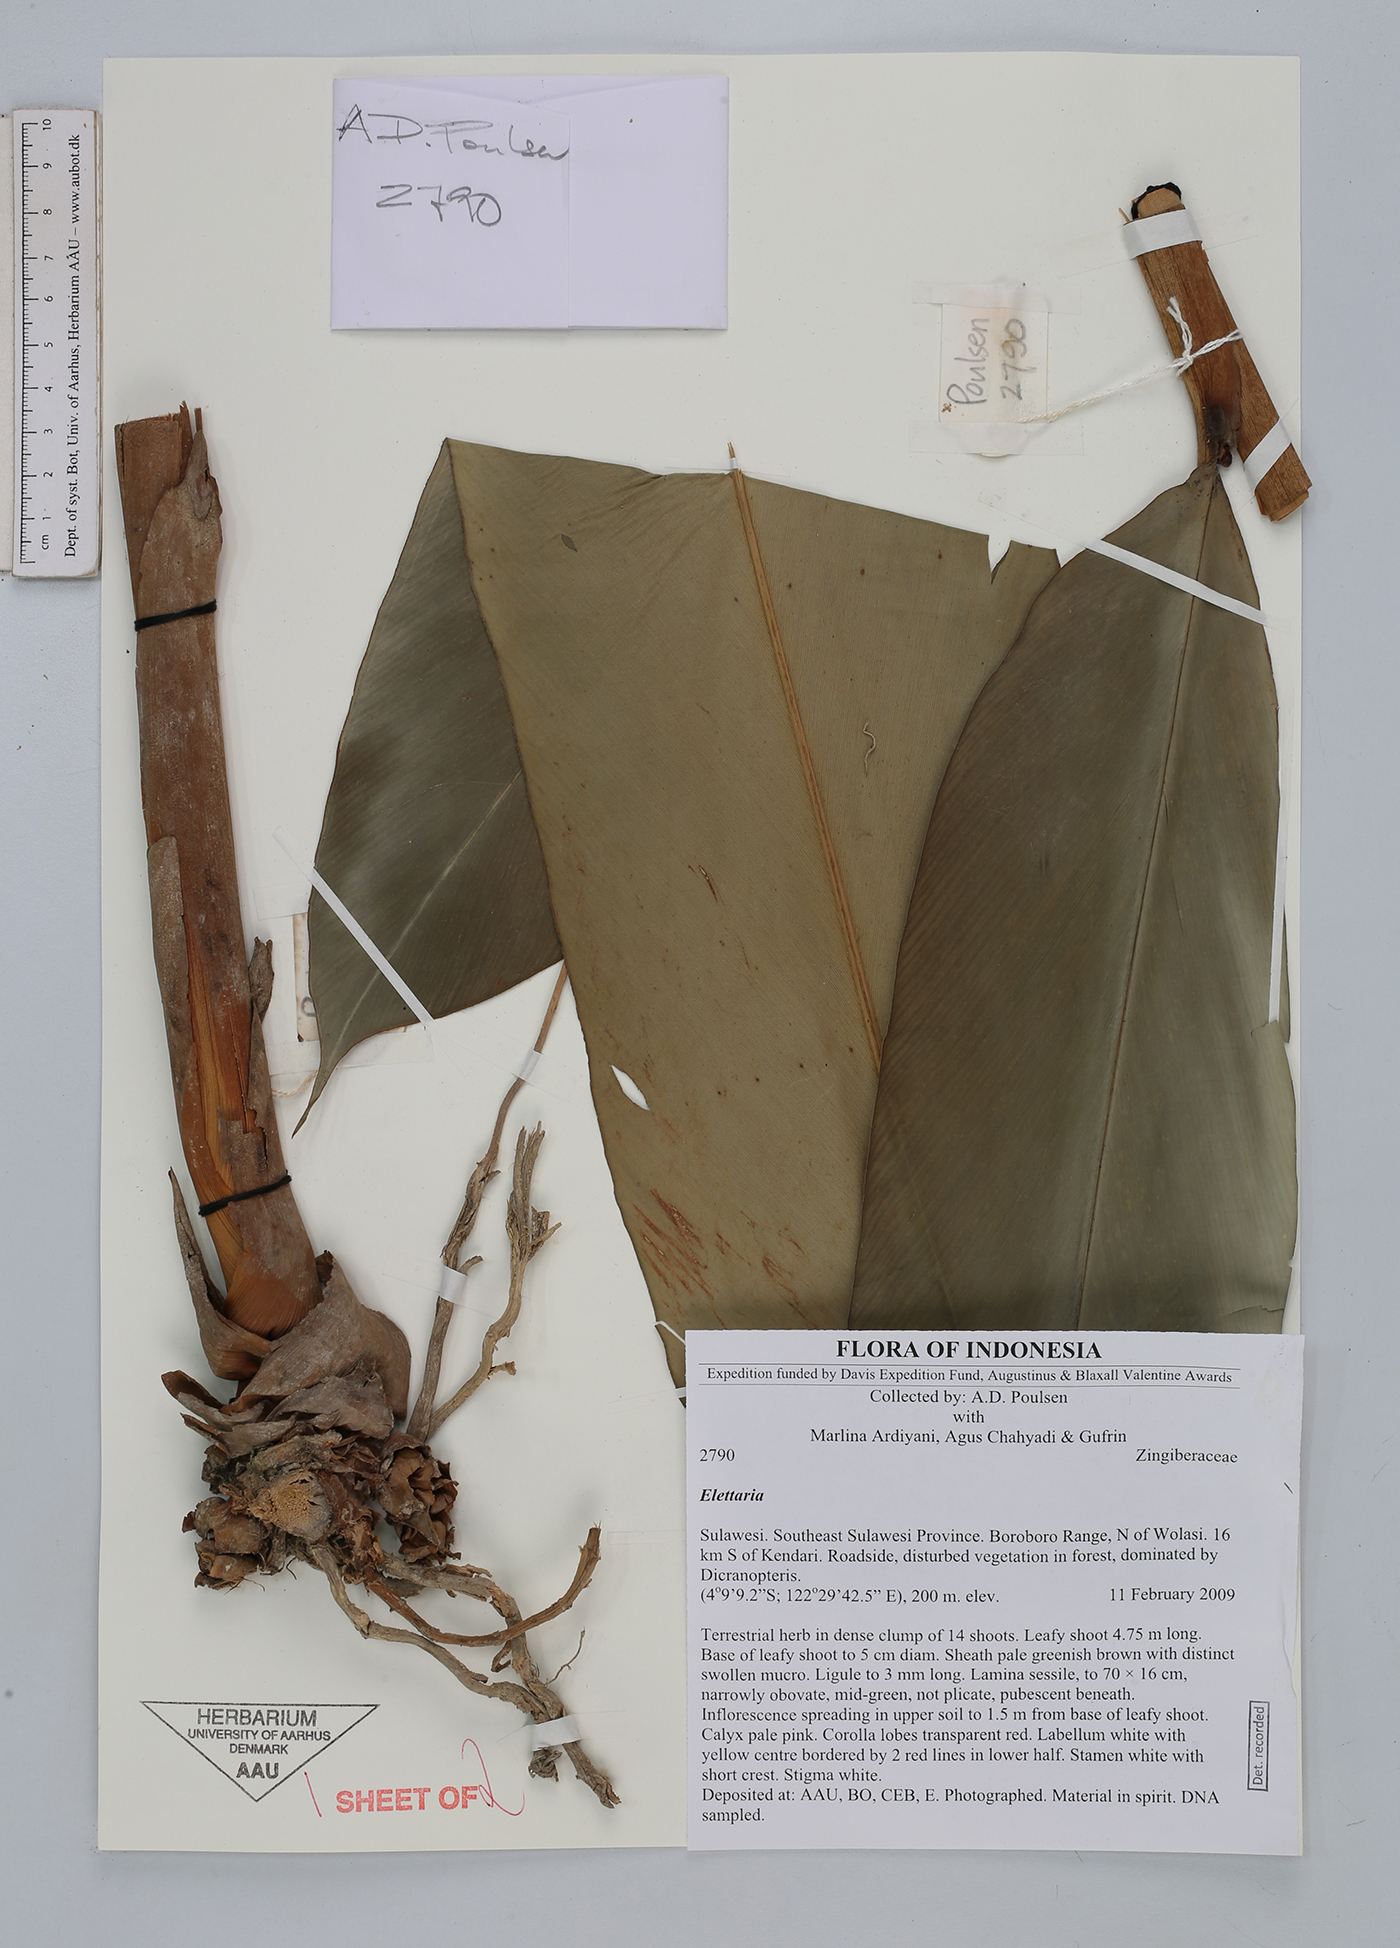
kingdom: Plantae
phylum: Tracheophyta
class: Liliopsida
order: Zingiberales
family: Zingiberaceae
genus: Sulettaria
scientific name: Sulettaria
